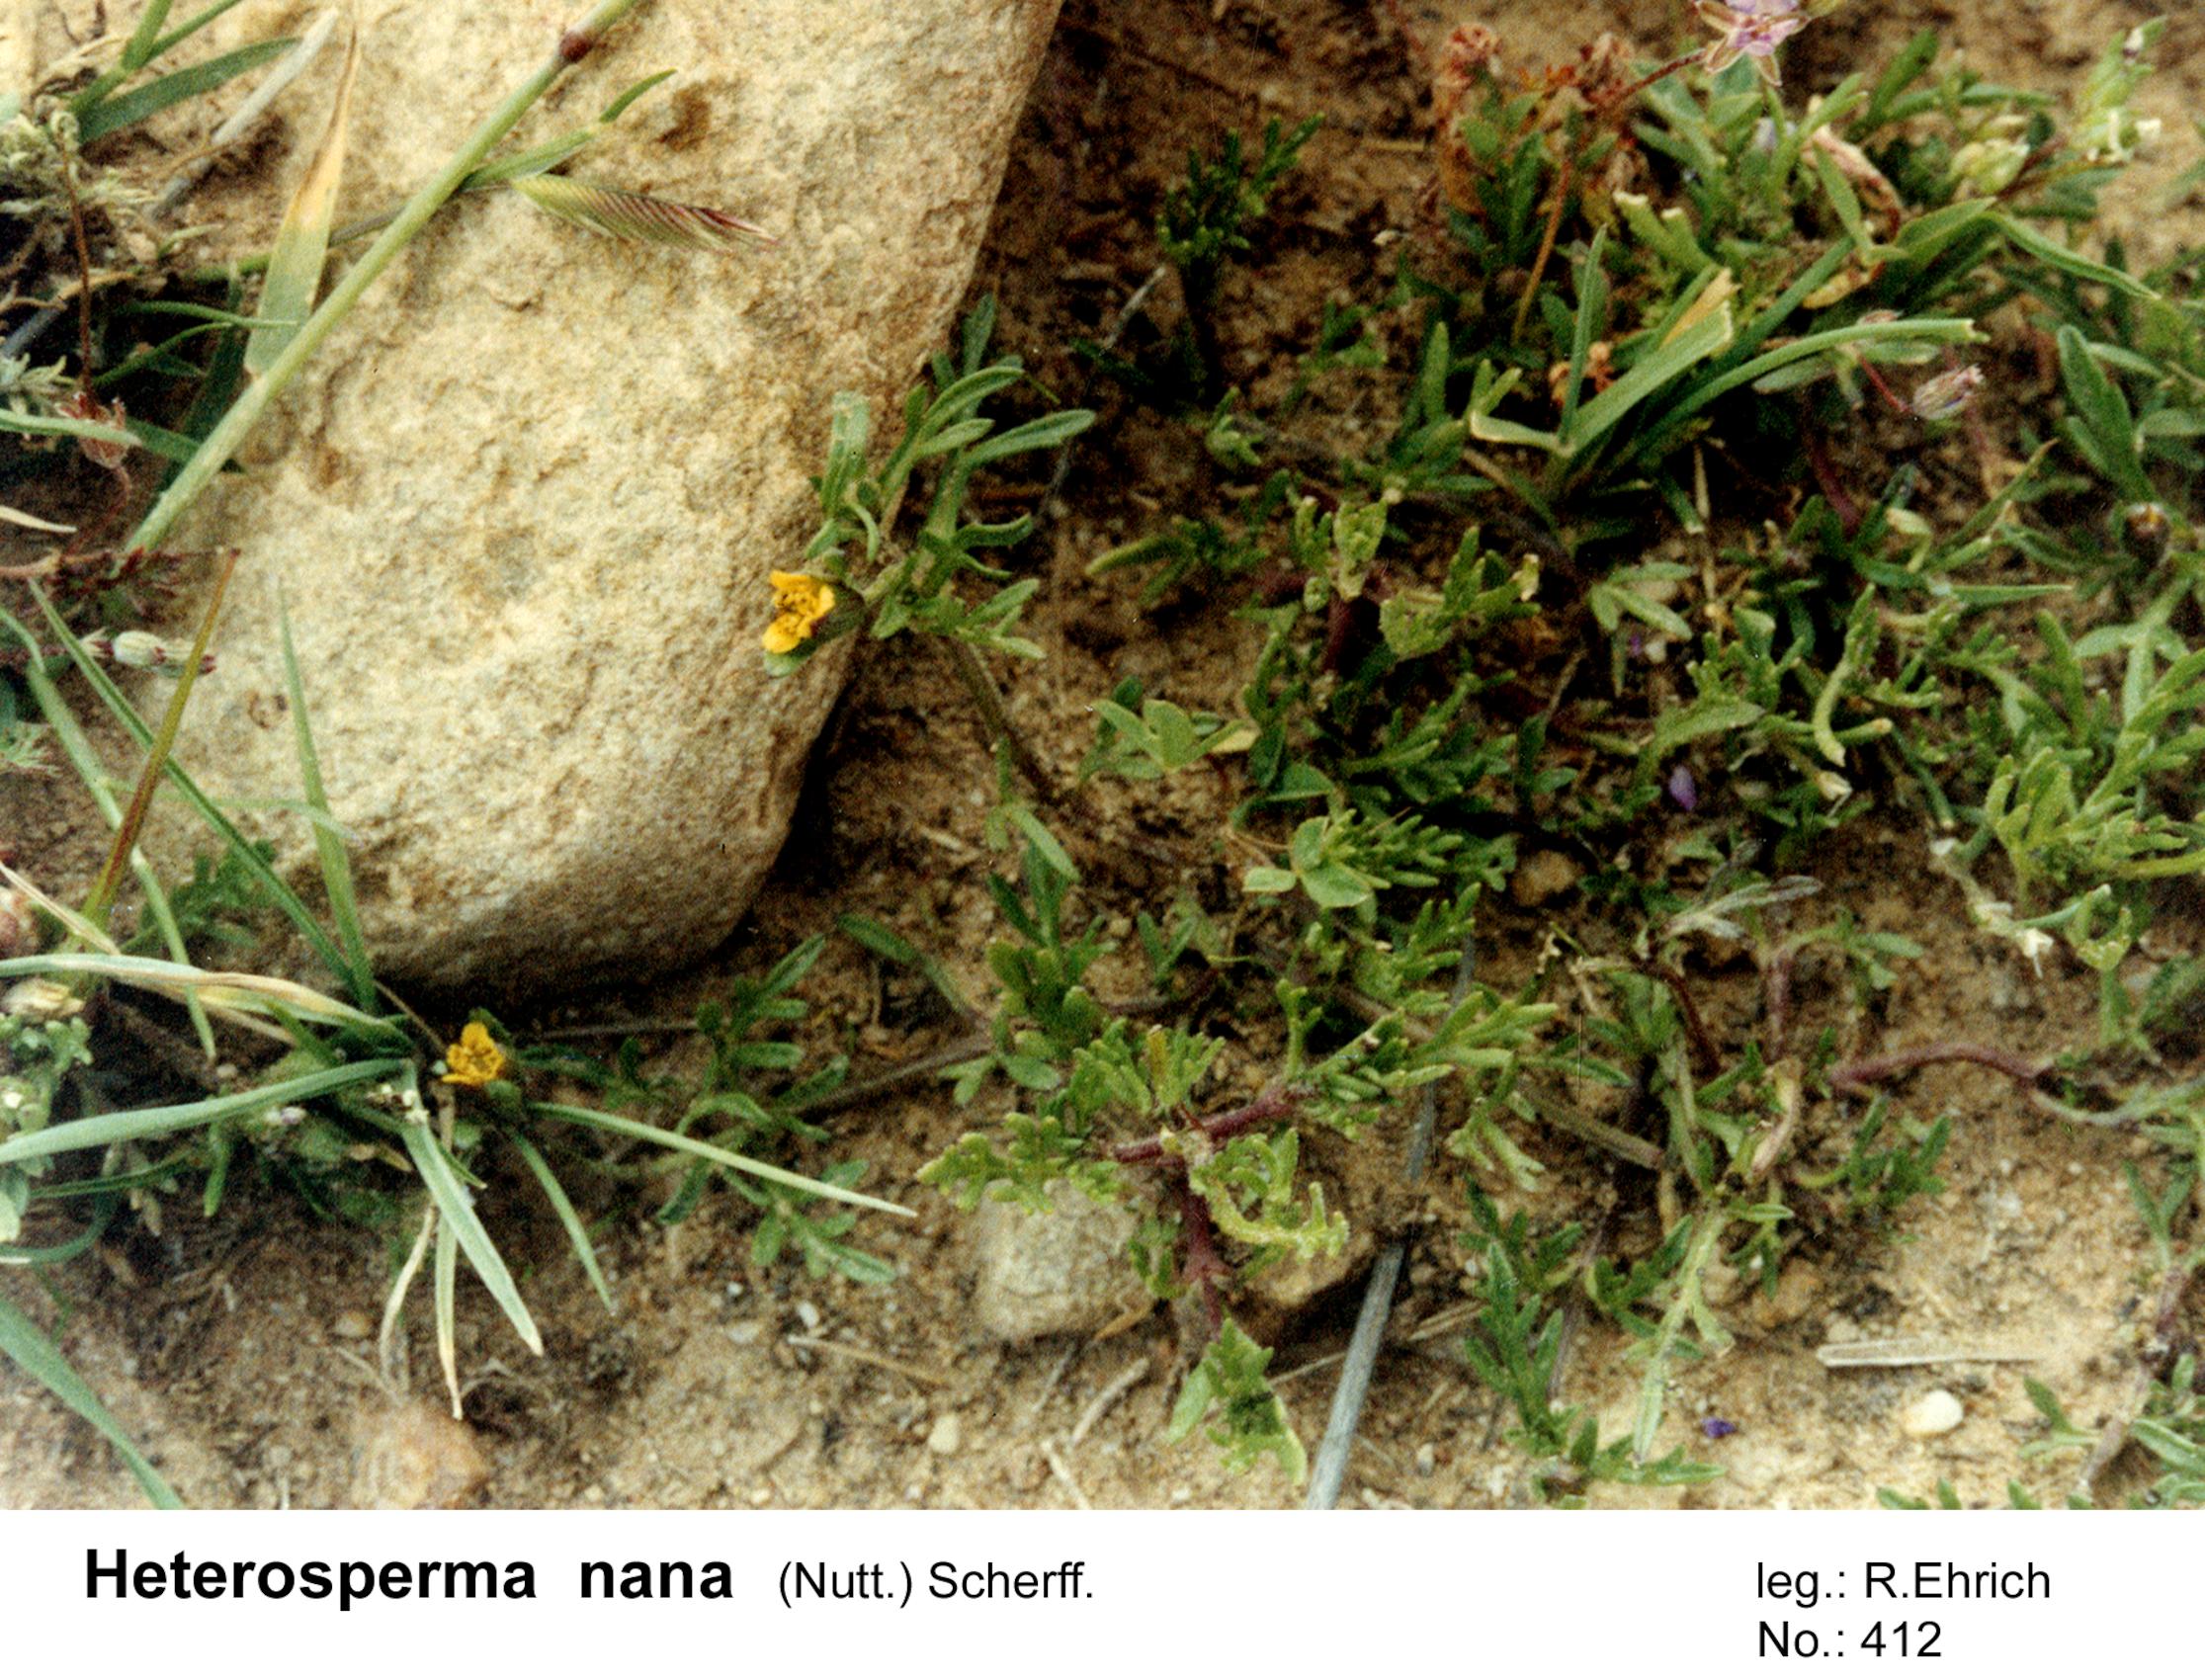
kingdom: Plantae
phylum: Tracheophyta
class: Magnoliopsida
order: Asterales
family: Asteraceae
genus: Heterosperma
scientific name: Heterosperma nanum
